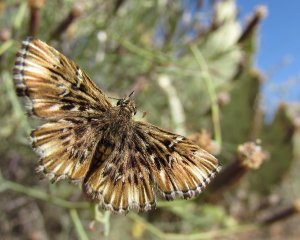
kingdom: Animalia
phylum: Arthropoda
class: Insecta
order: Lepidoptera
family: Hesperiidae
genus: Celotes
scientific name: Celotes nessus
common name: Common Streaky-Skipper
